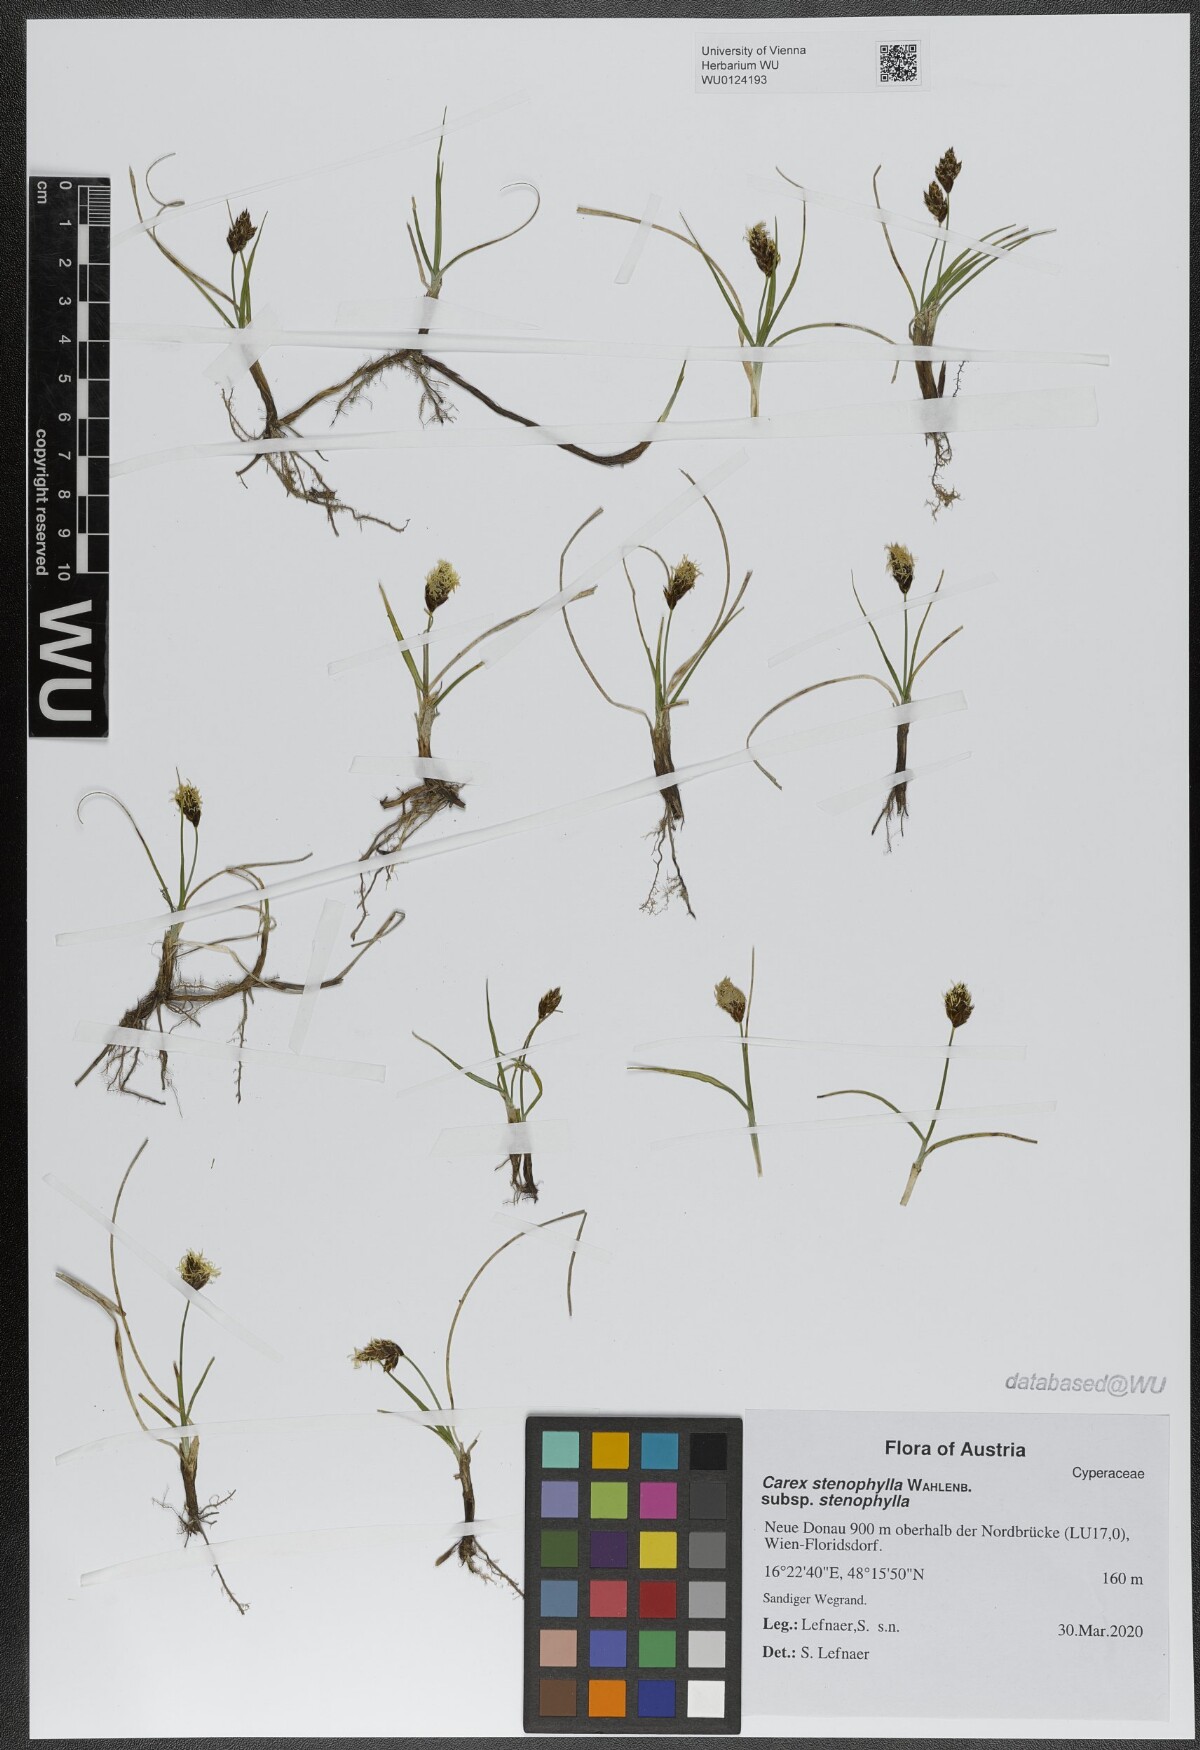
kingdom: Plantae
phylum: Tracheophyta
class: Liliopsida
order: Poales
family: Cyperaceae
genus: Carex
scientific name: Carex stenophylla
